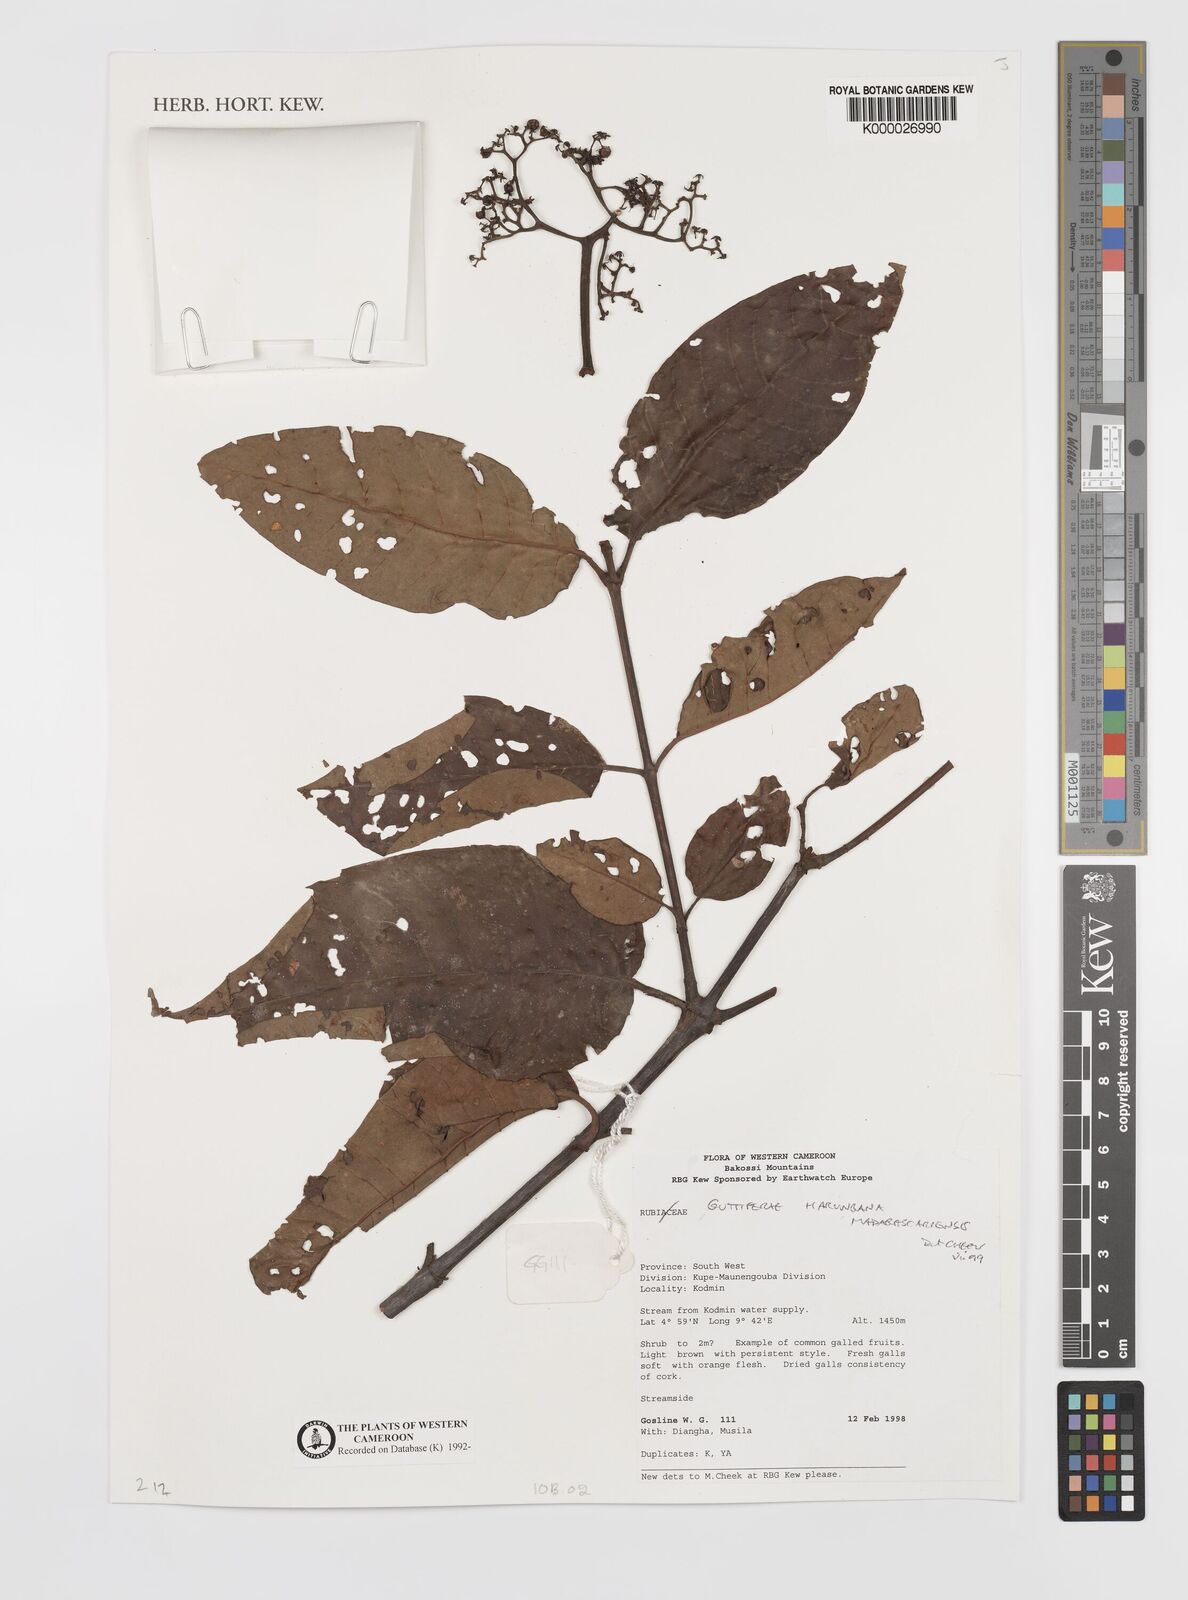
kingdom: Plantae
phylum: Tracheophyta
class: Magnoliopsida
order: Malpighiales
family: Hypericaceae
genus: Harungana
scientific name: Harungana madagascariensis
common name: Orange milktree
